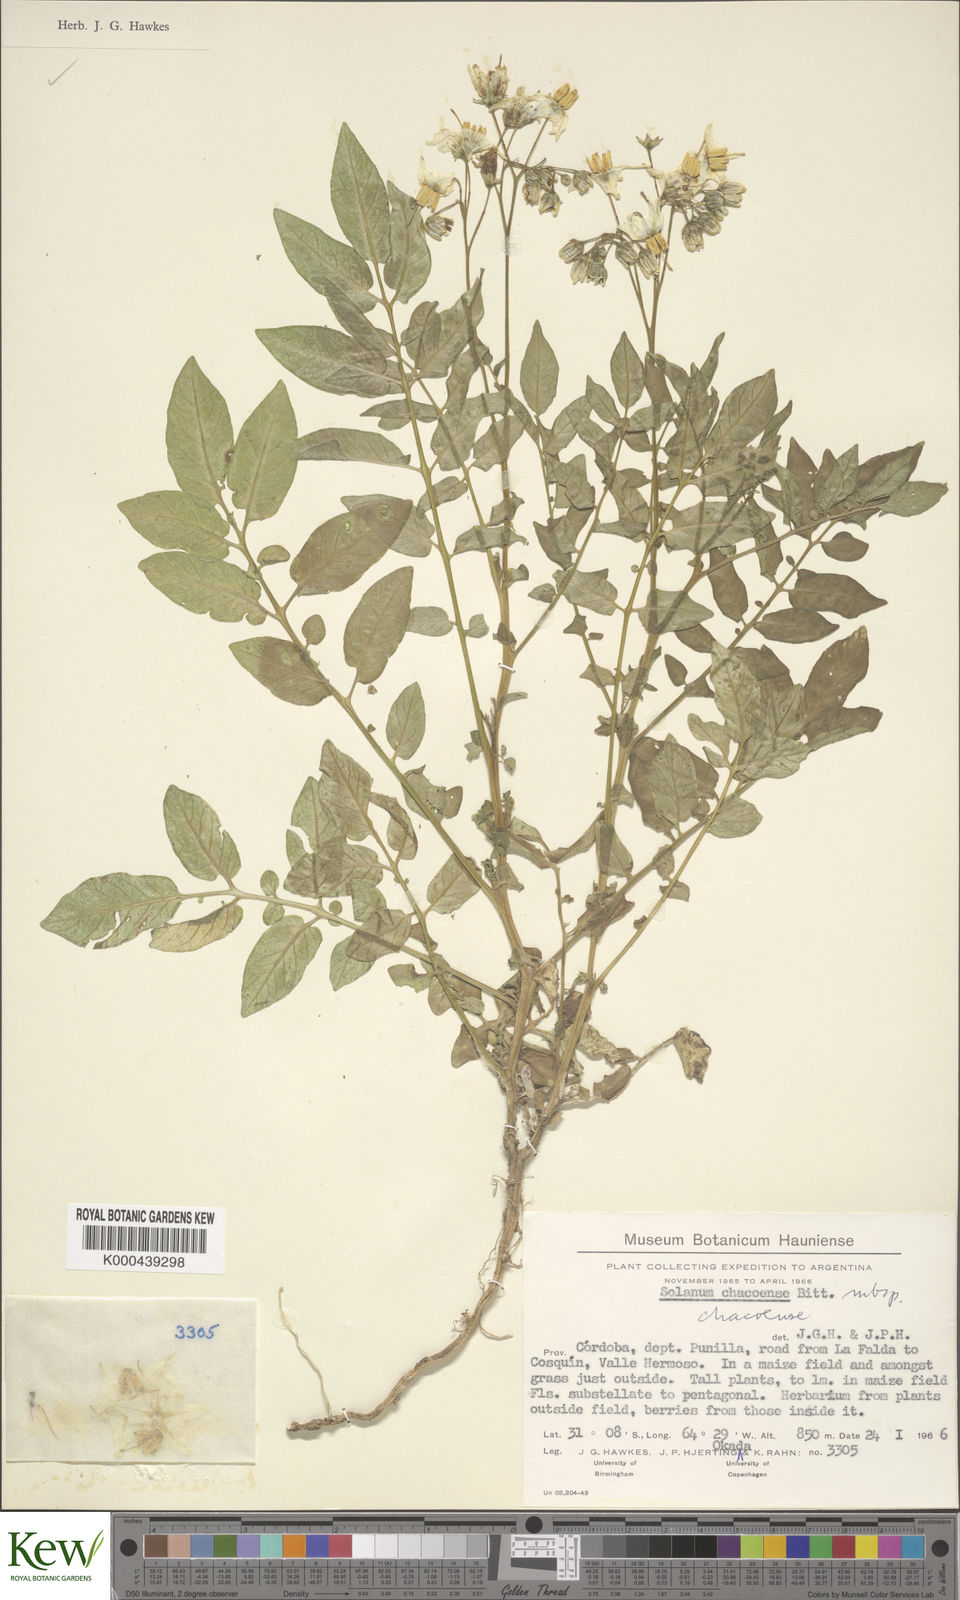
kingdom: Plantae
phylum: Tracheophyta
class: Magnoliopsida
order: Solanales
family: Solanaceae
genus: Solanum
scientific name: Solanum chacoense
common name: Chaco potato
